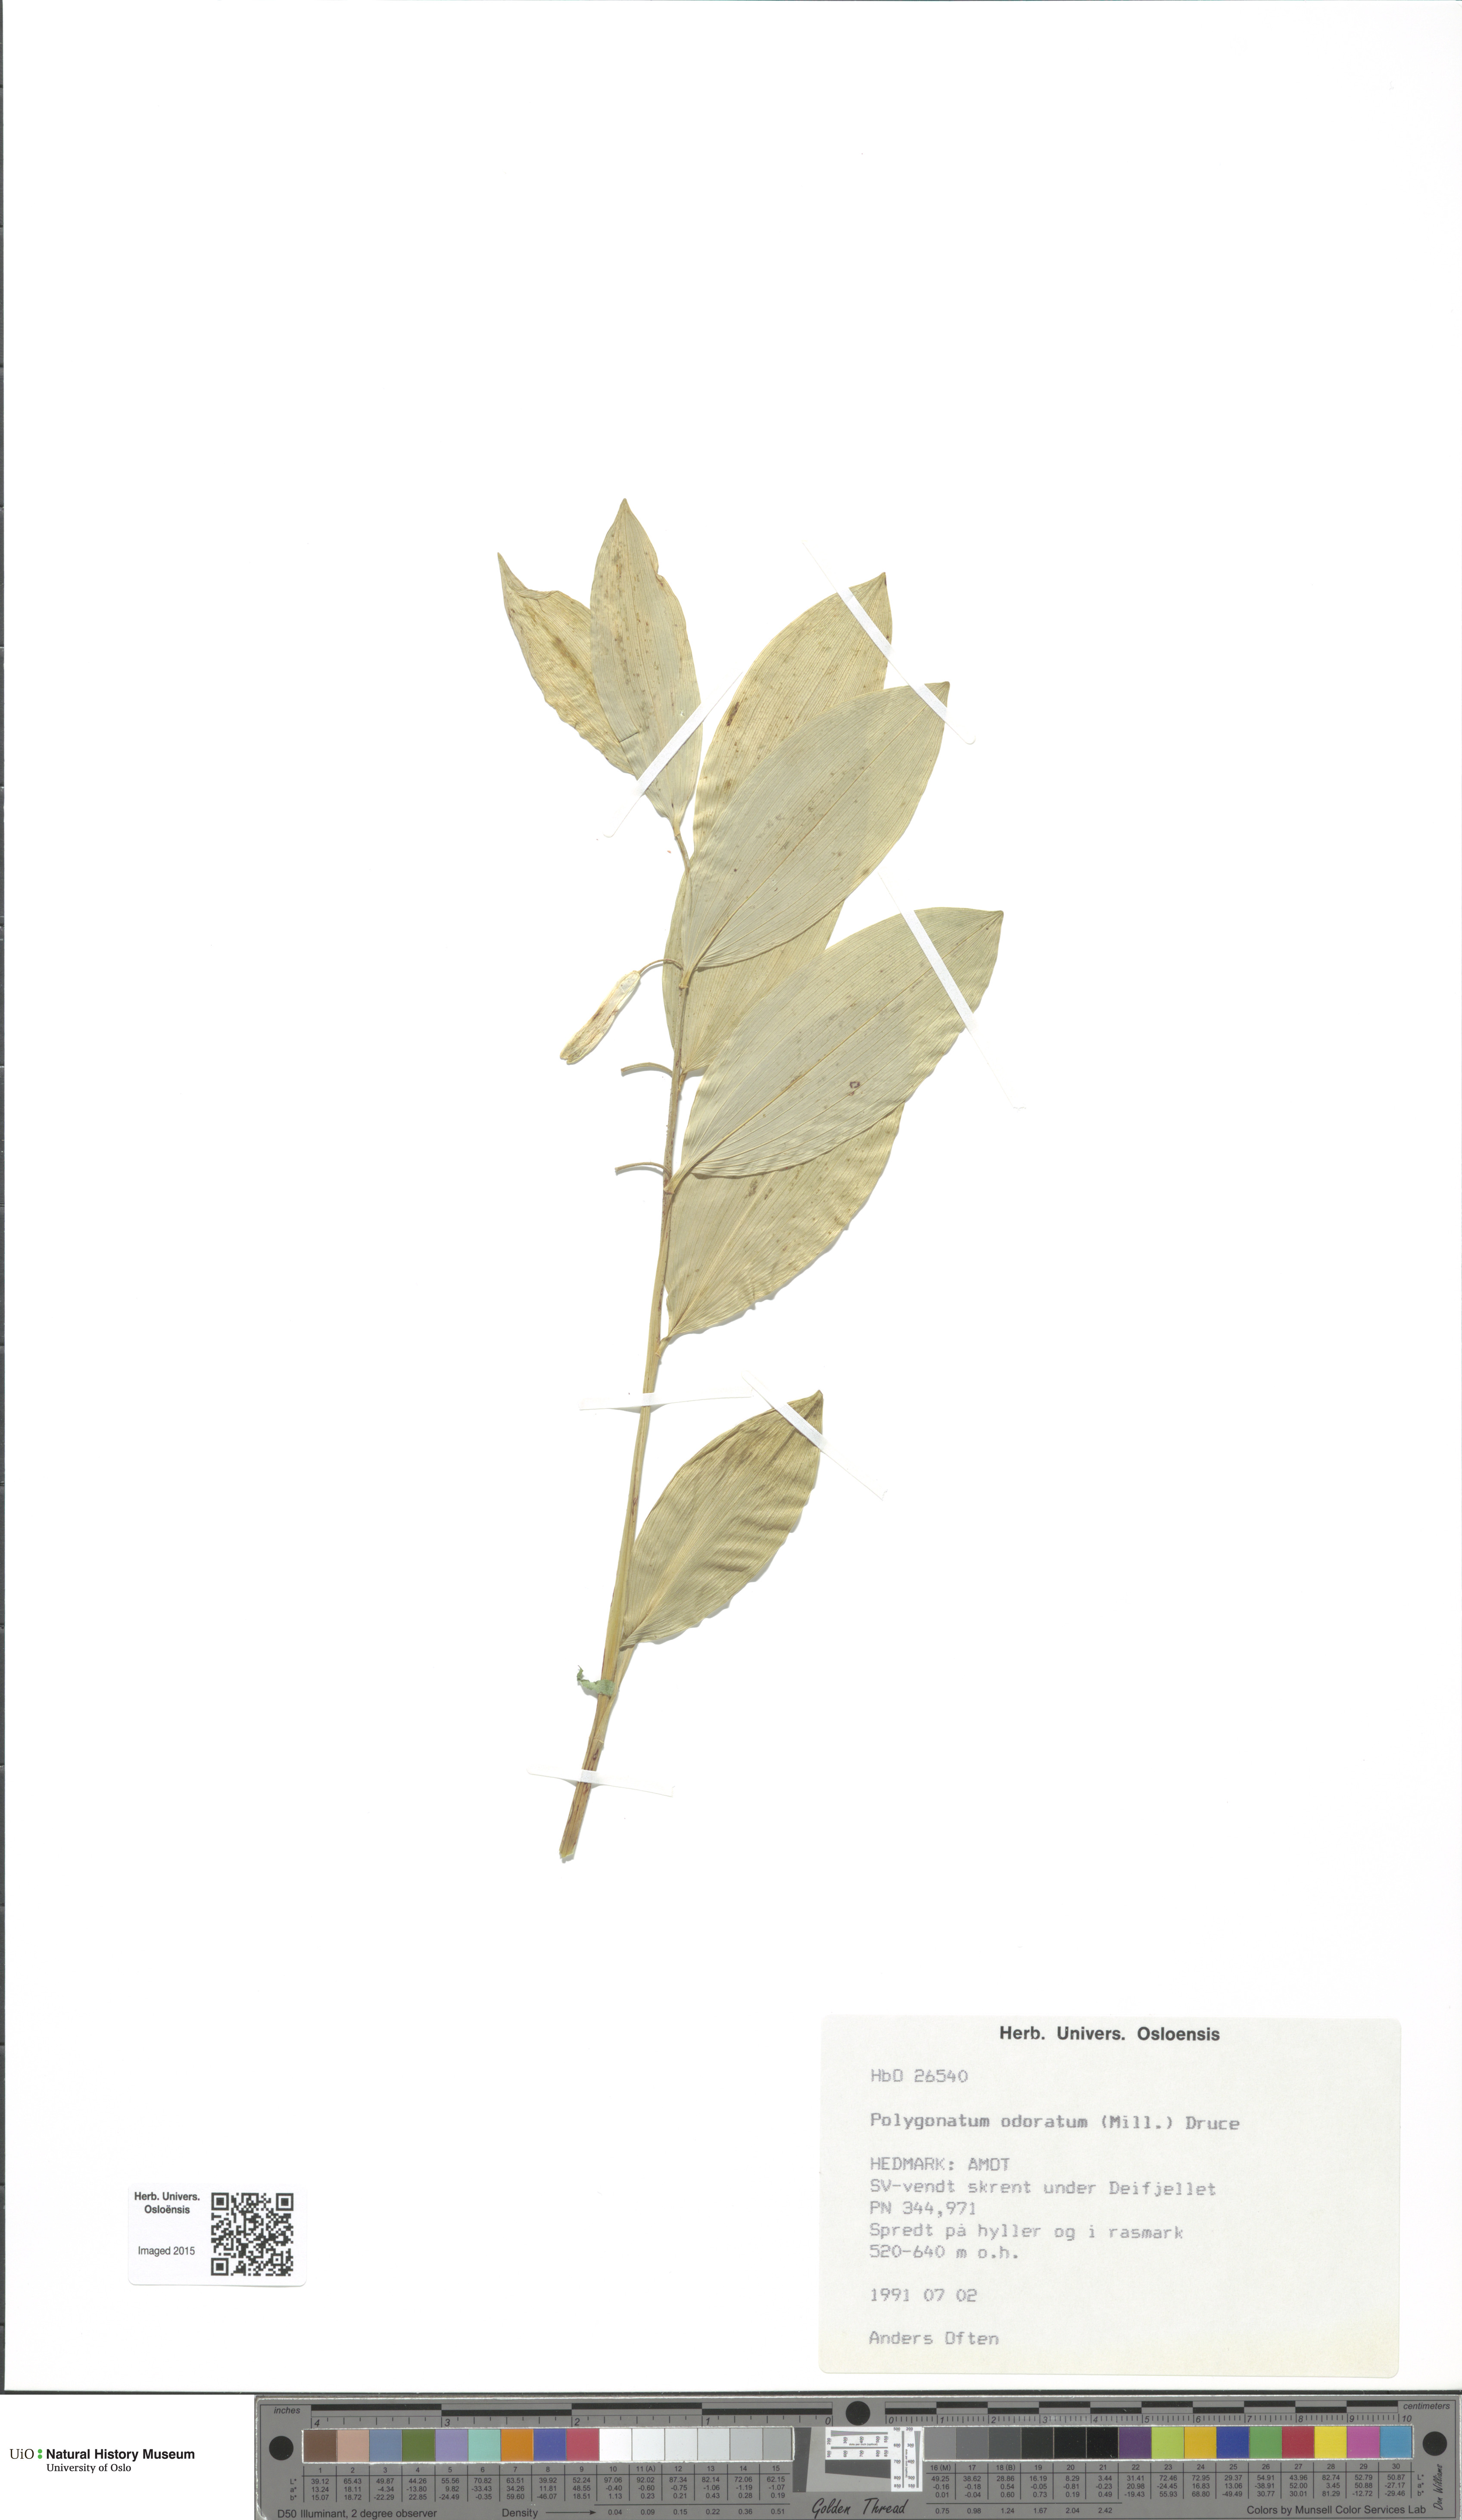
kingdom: Plantae
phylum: Tracheophyta
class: Liliopsida
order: Asparagales
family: Asparagaceae
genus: Polygonatum
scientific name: Polygonatum odoratum
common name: Angular solomon's-seal
